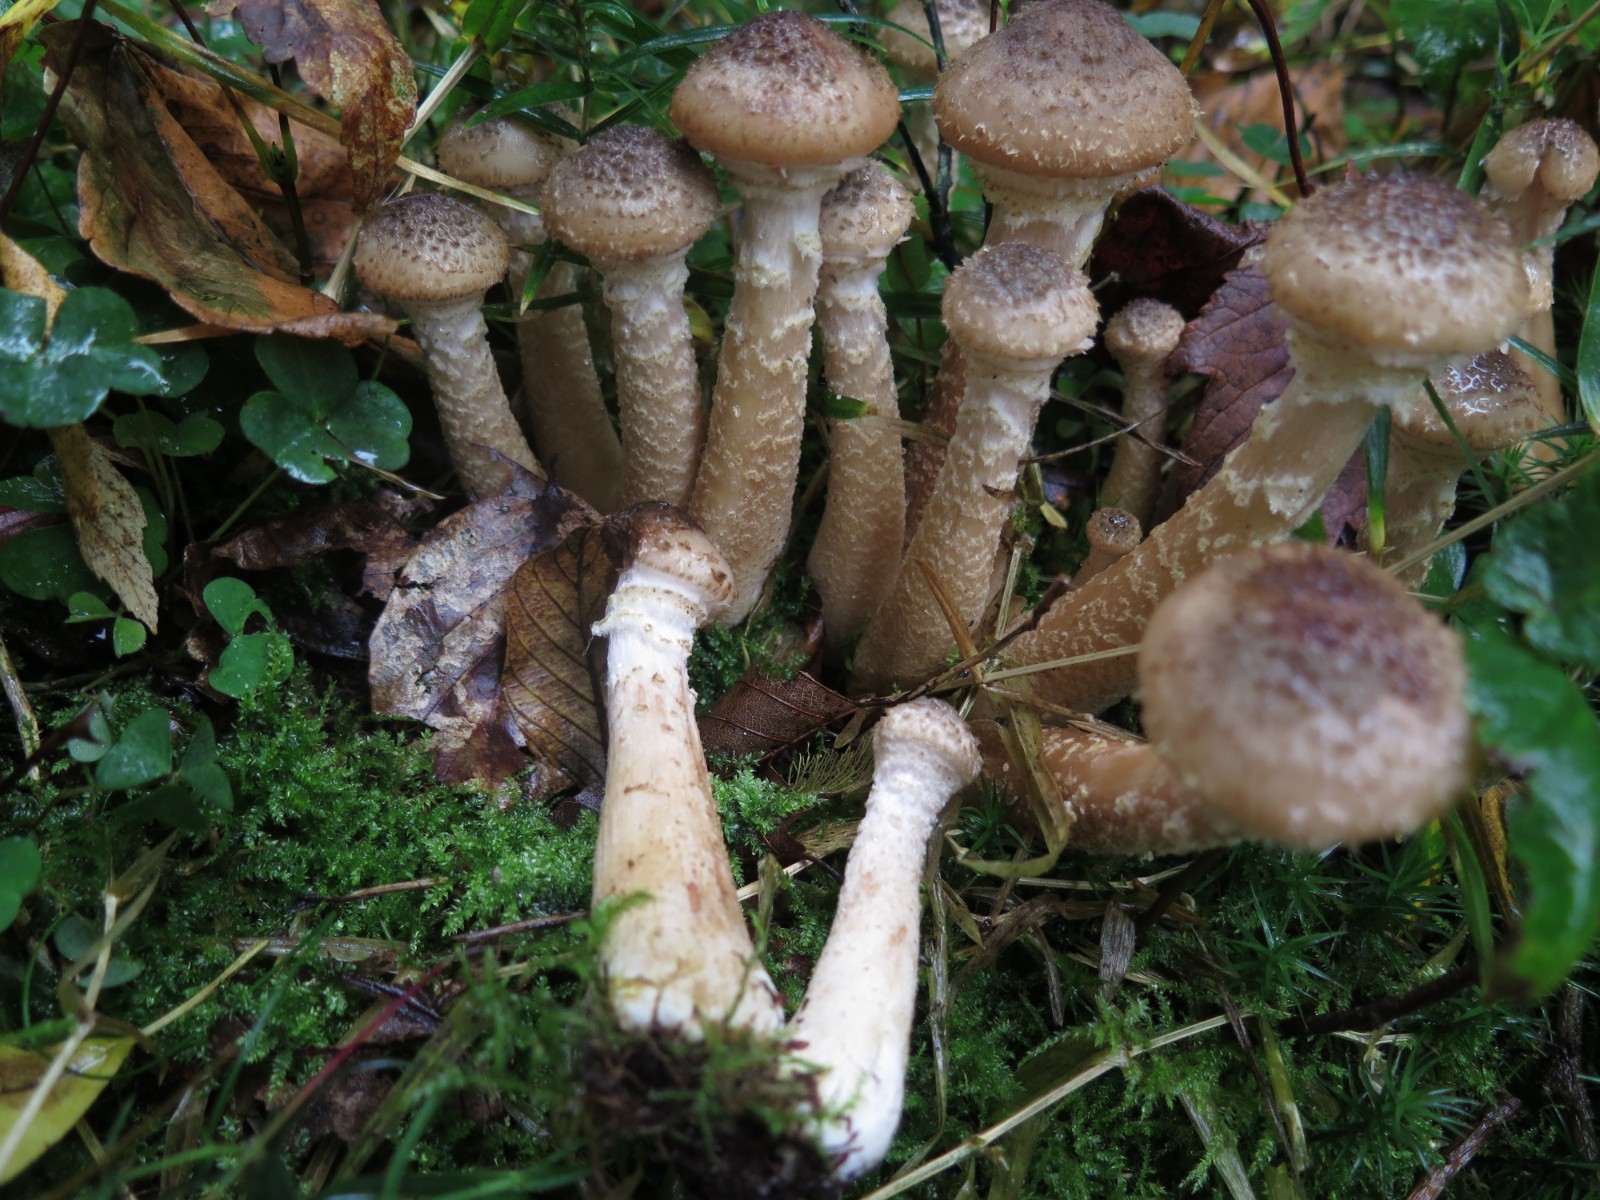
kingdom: Fungi
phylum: Basidiomycota
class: Agaricomycetes
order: Agaricales
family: Physalacriaceae
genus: Armillaria
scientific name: Armillaria ostoyae
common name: mørk honningsvamp
